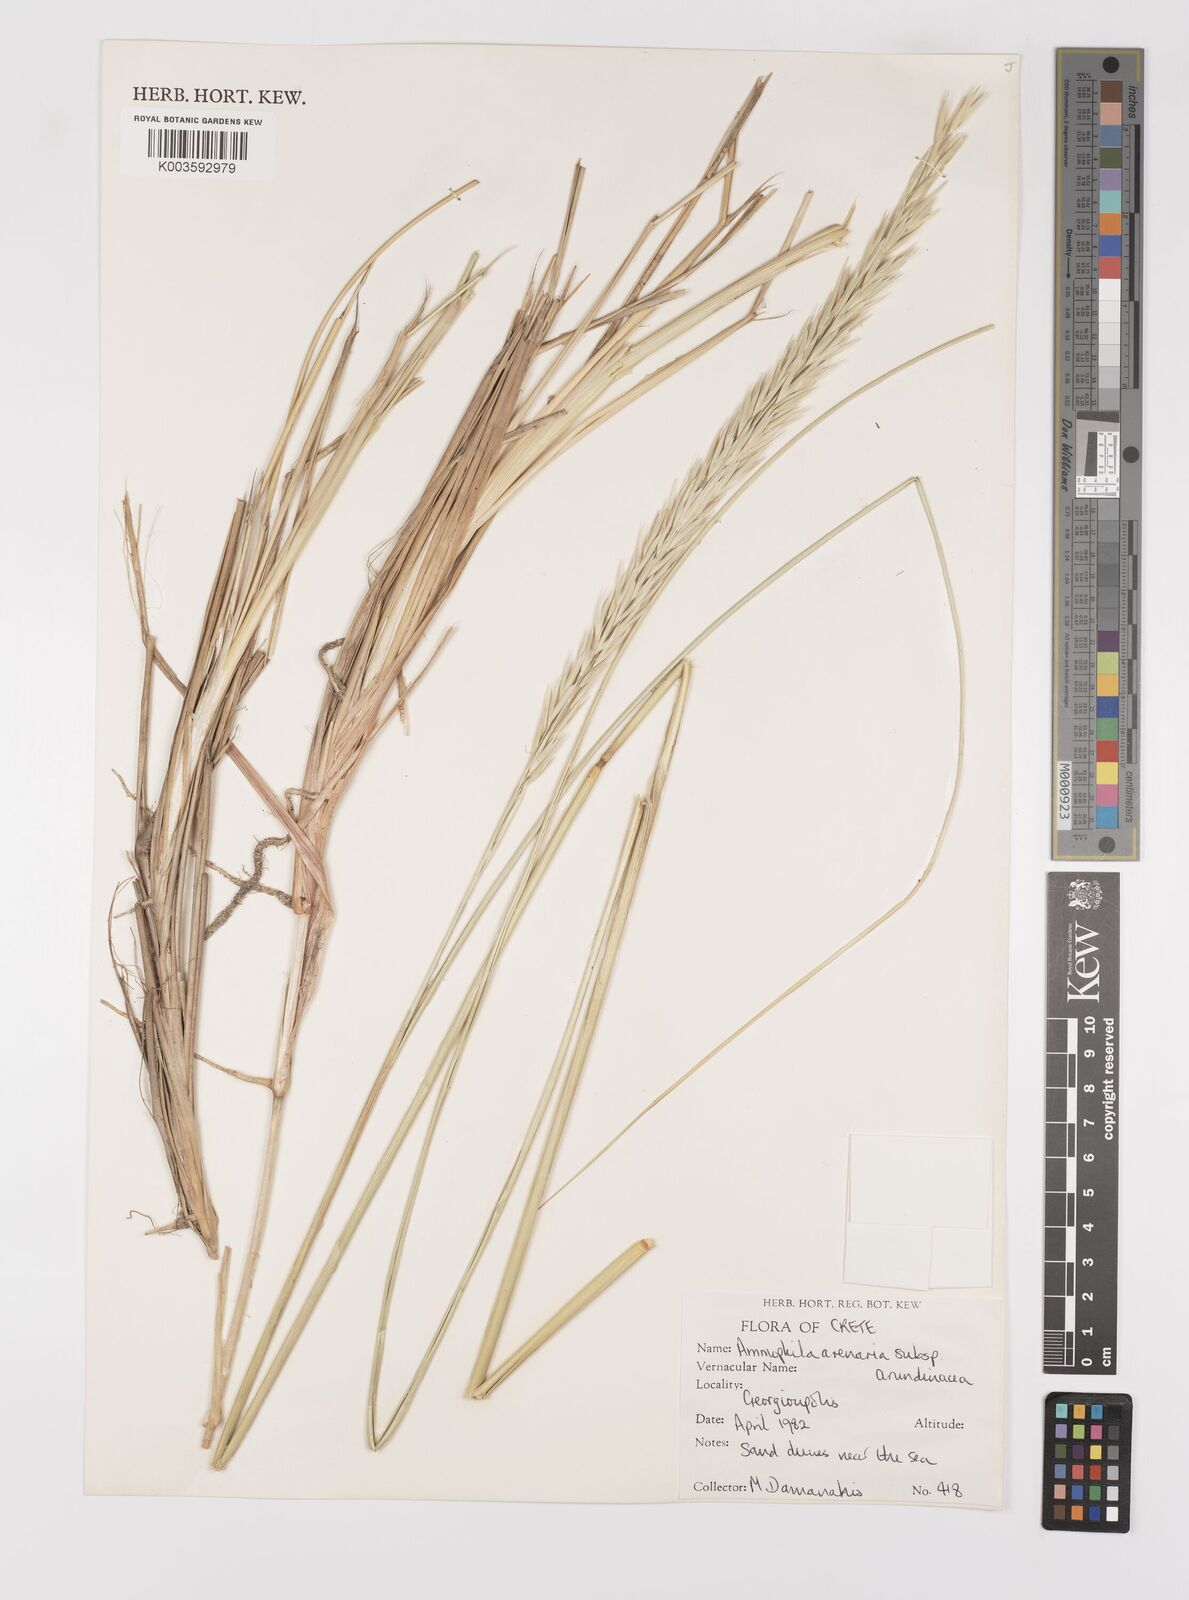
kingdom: Plantae
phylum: Tracheophyta
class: Liliopsida
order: Poales
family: Poaceae
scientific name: Poaceae
